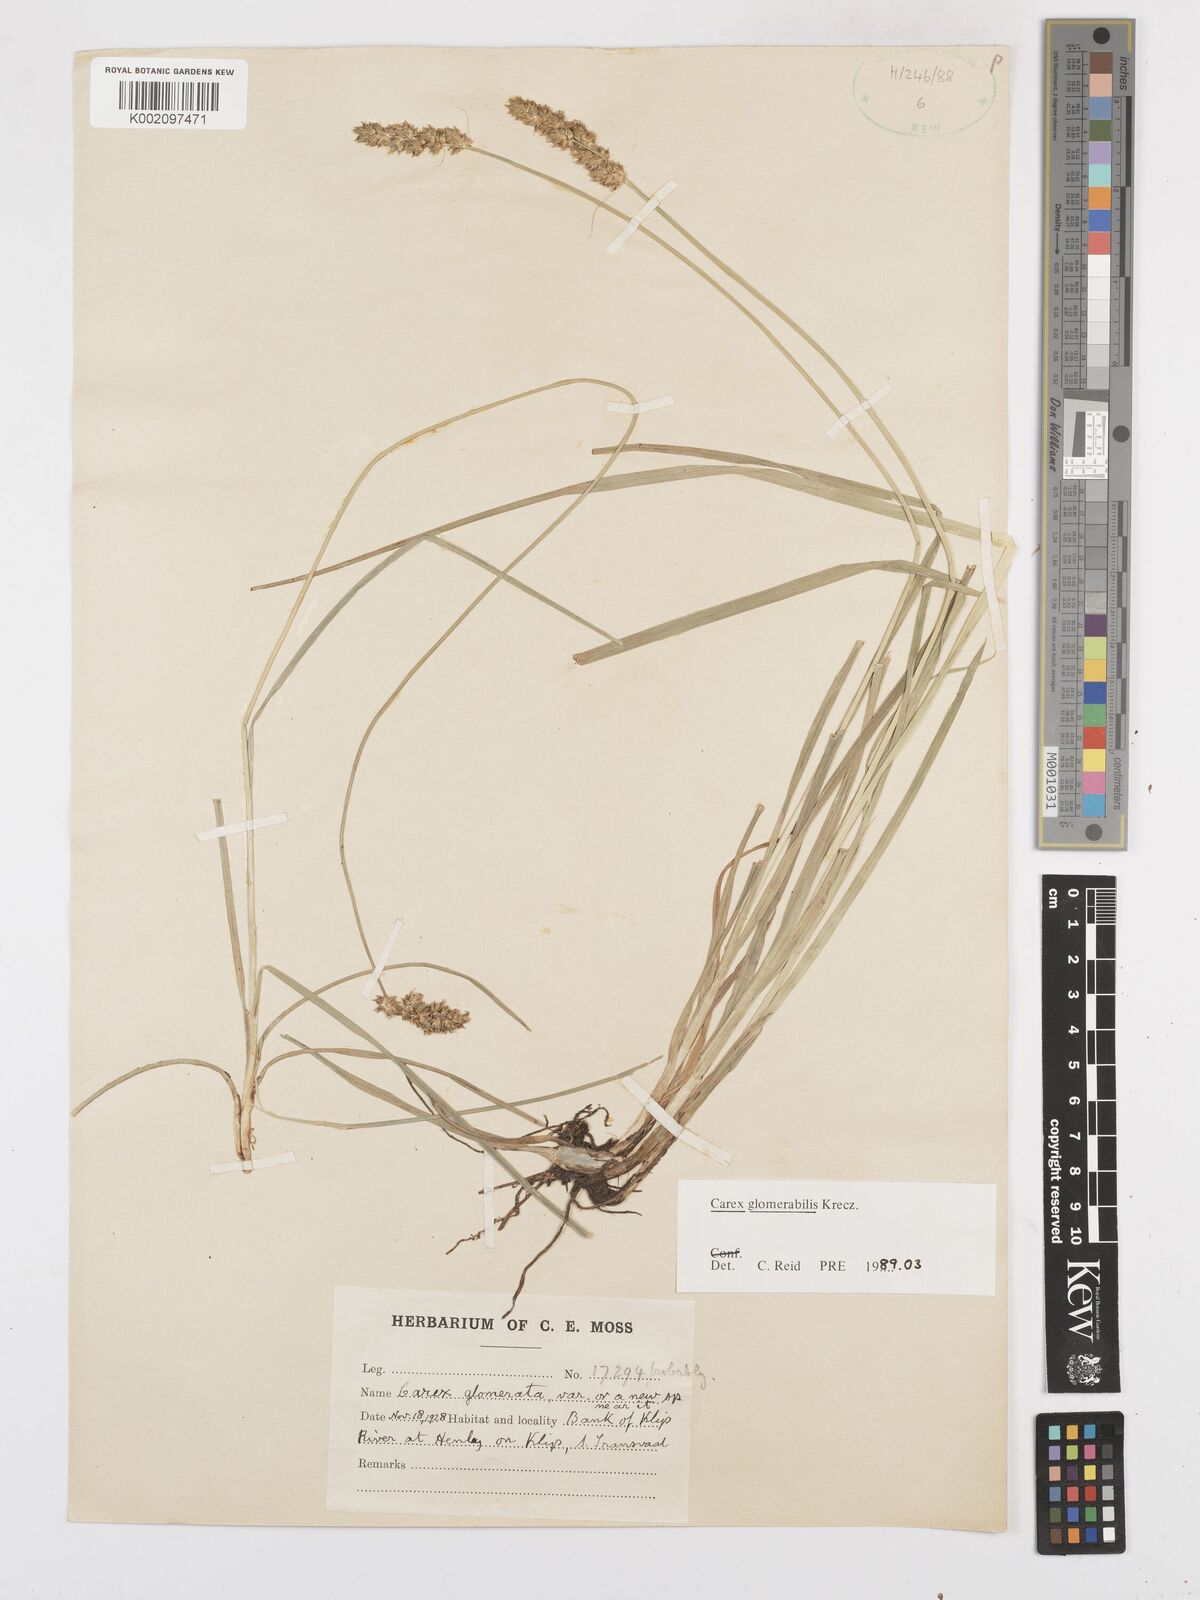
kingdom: Plantae
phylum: Tracheophyta
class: Liliopsida
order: Poales
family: Cyperaceae
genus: Carex
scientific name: Carex glomerata
